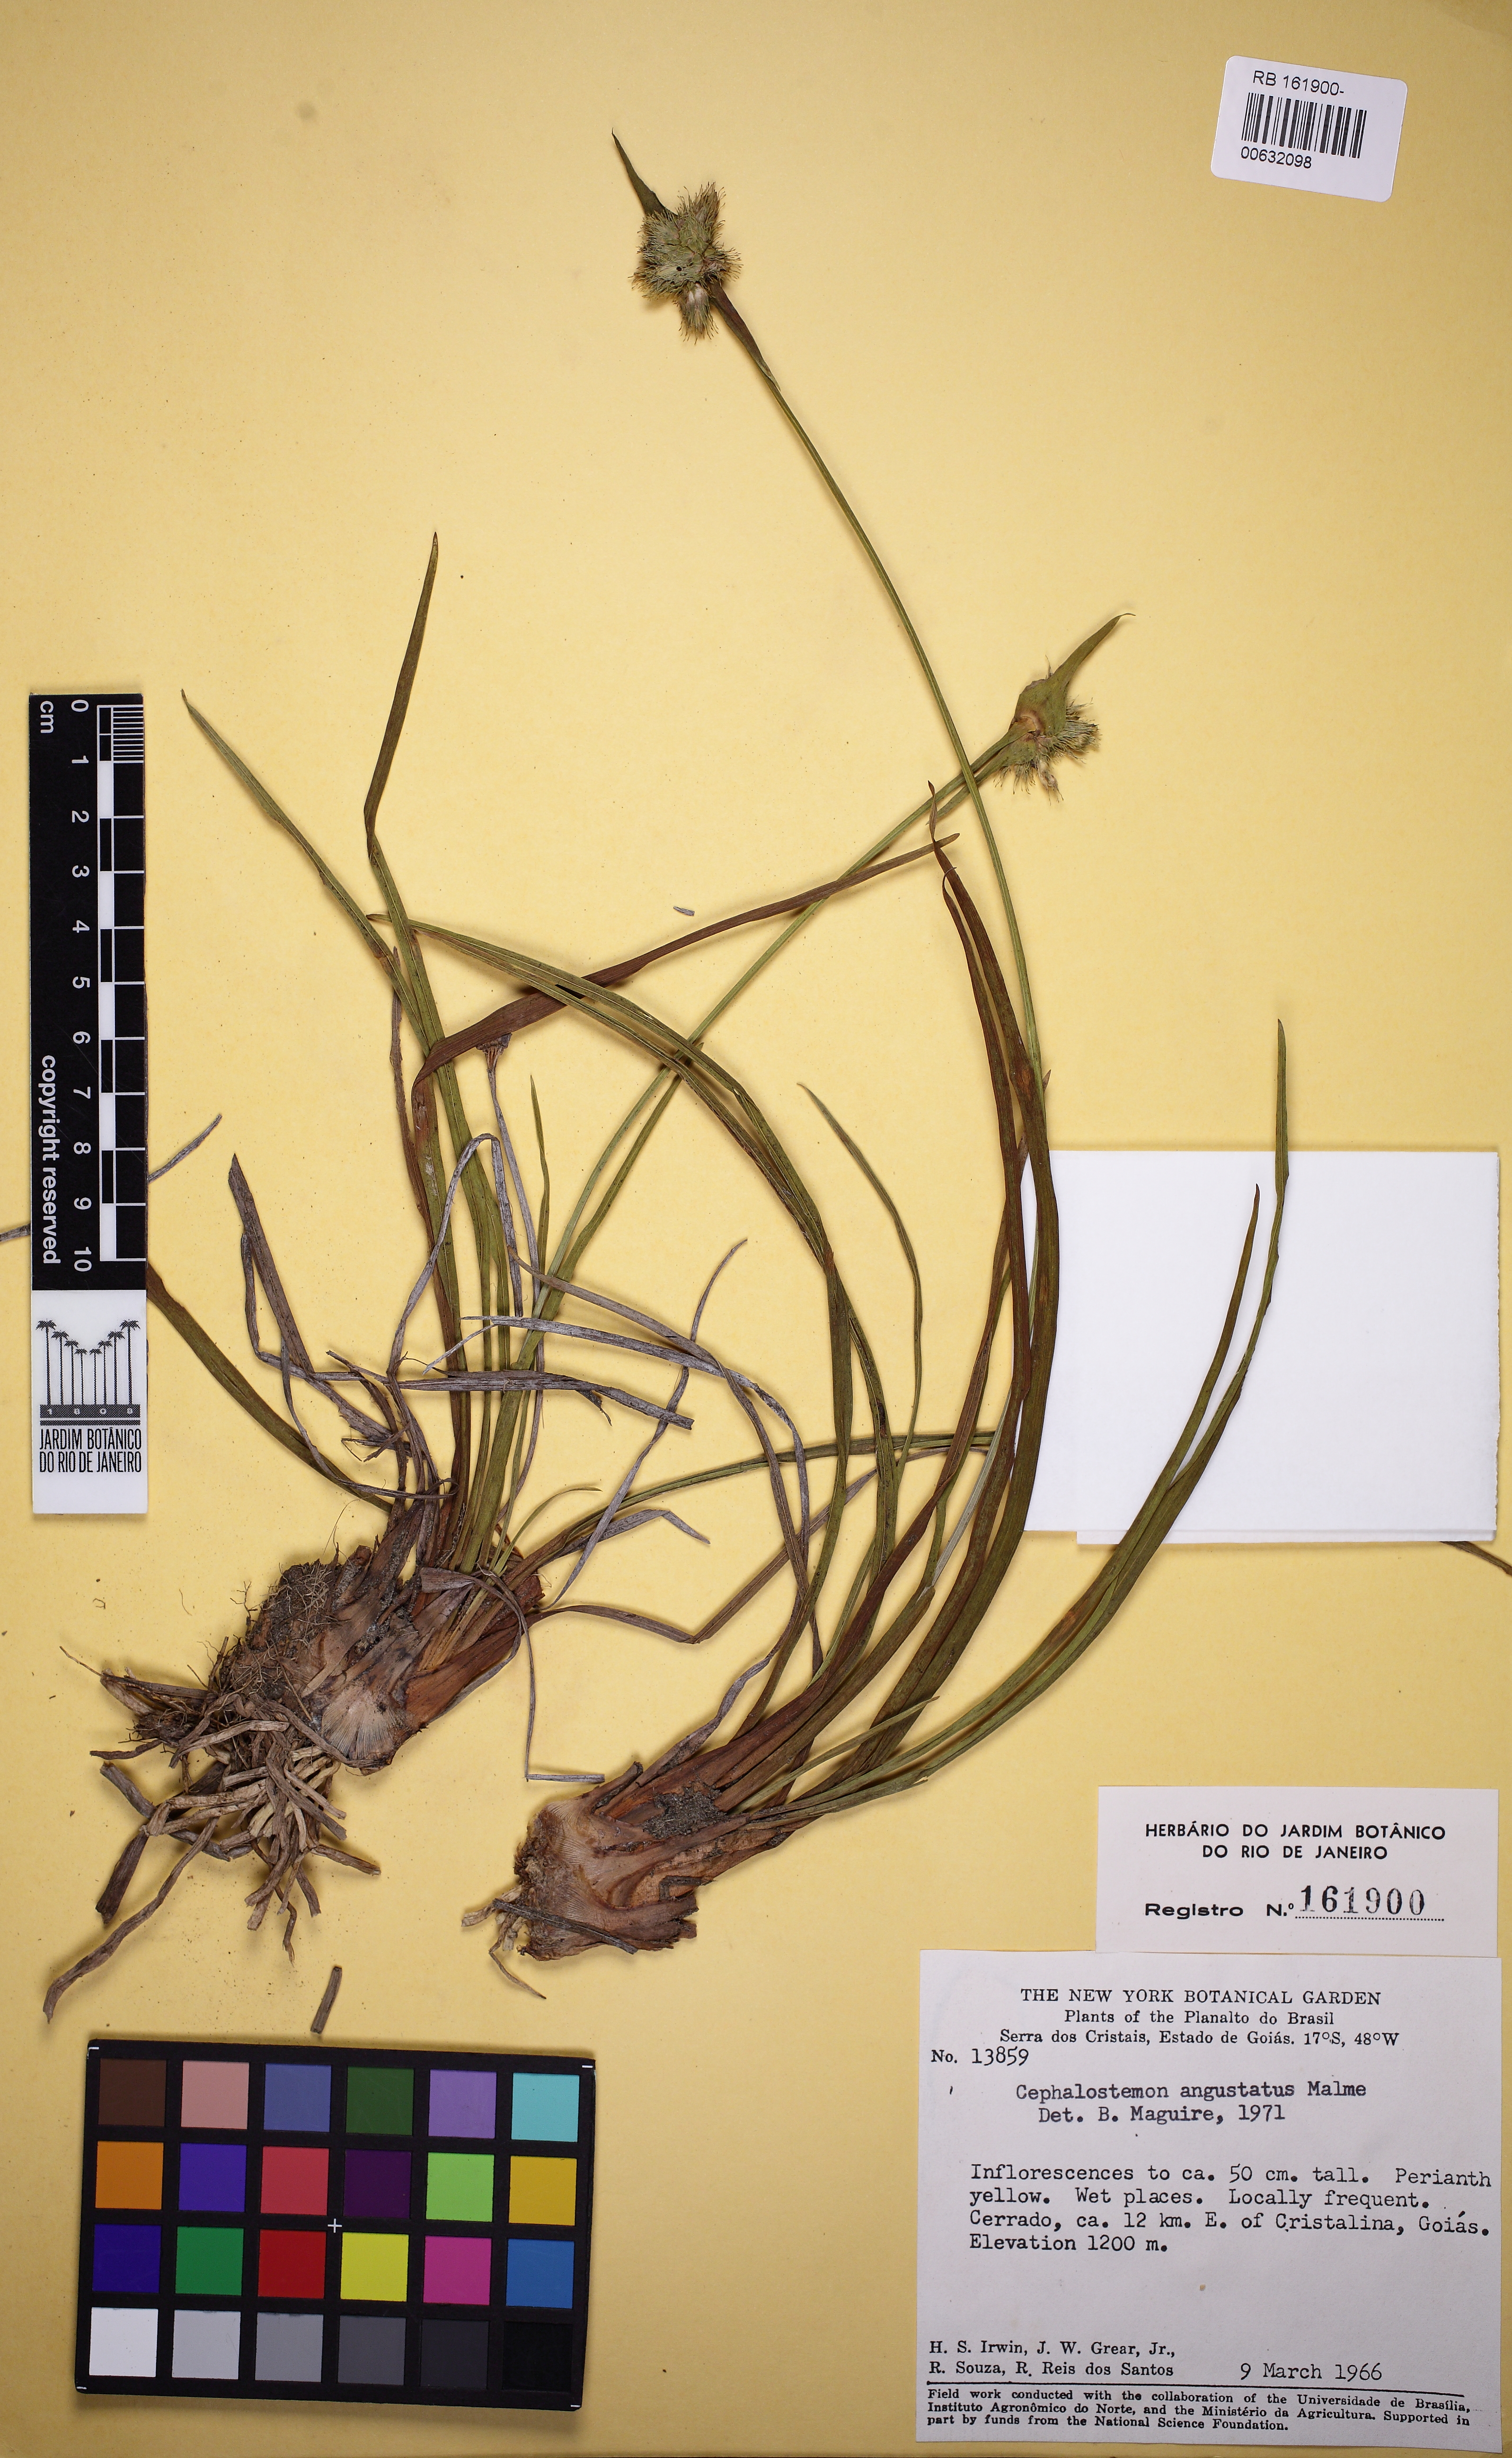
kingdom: Plantae
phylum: Tracheophyta
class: Liliopsida
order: Poales
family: Rapateaceae
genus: Cephalostemon
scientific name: Cephalostemon angustatus
